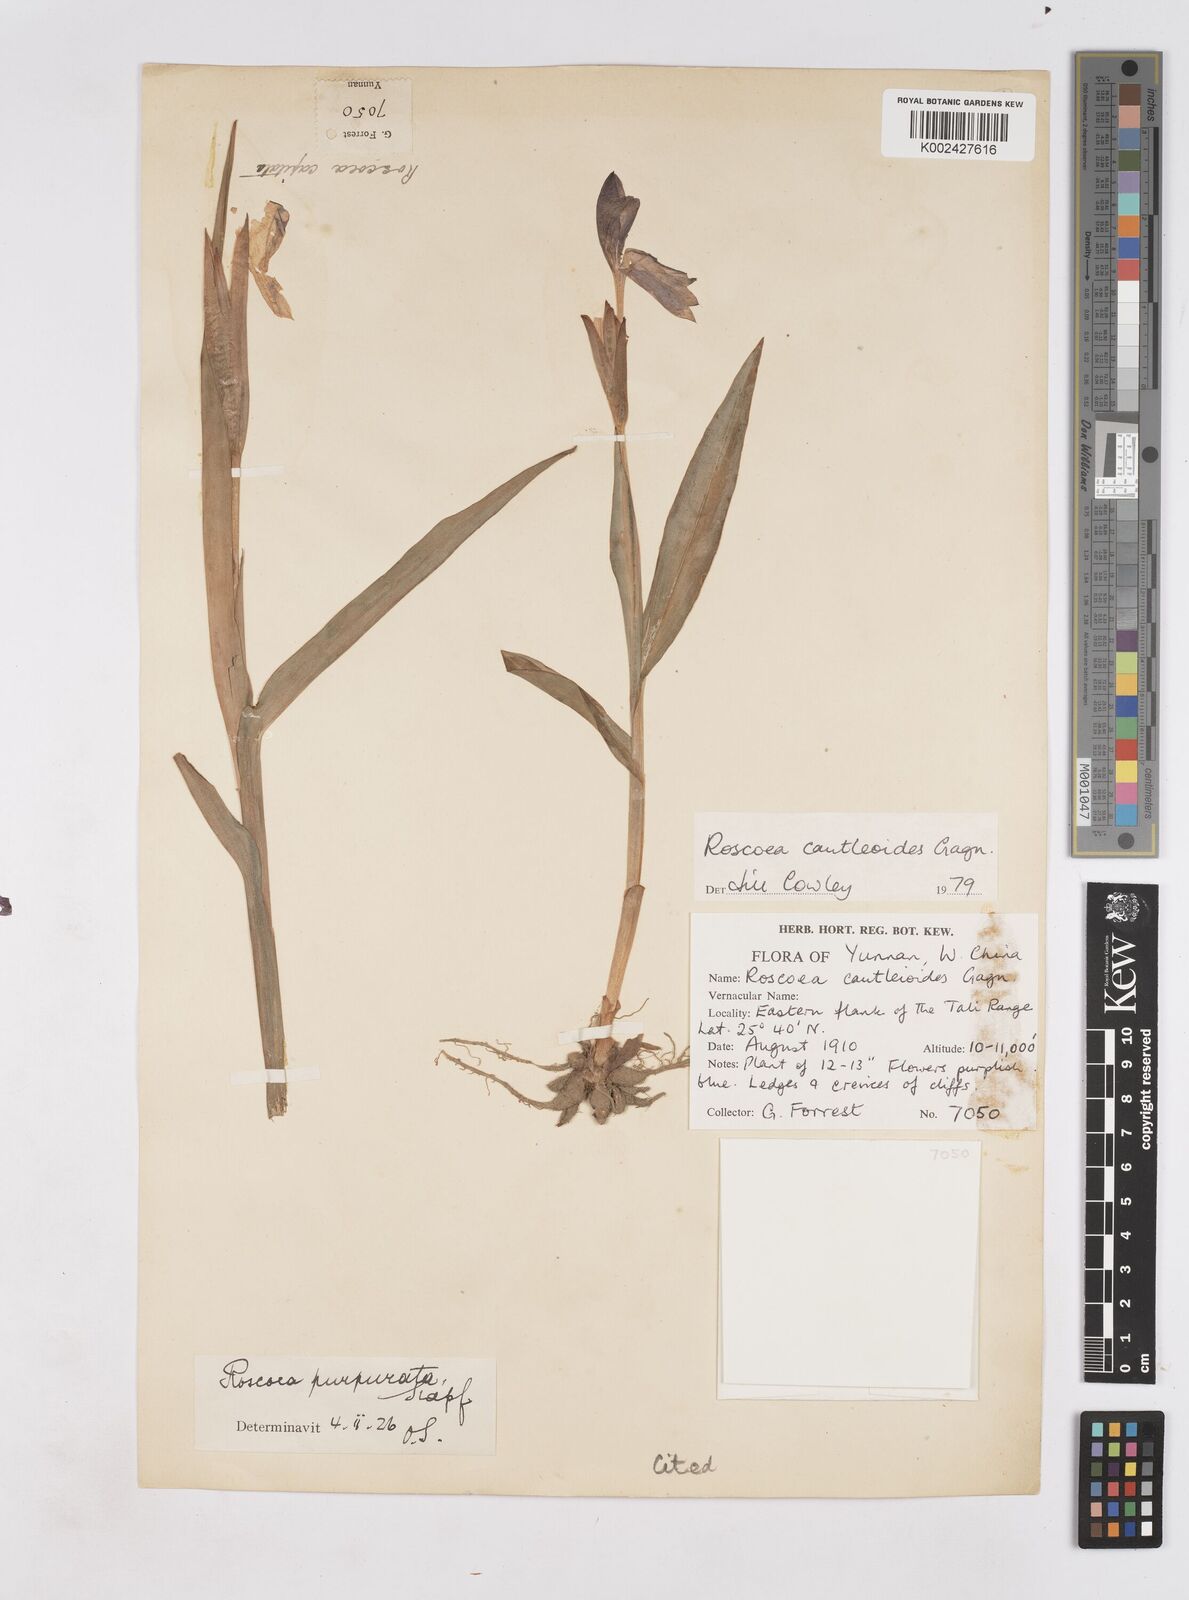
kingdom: Plantae
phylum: Tracheophyta
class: Liliopsida
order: Zingiberales
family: Zingiberaceae
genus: Roscoea
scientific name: Roscoea cautleyoides
